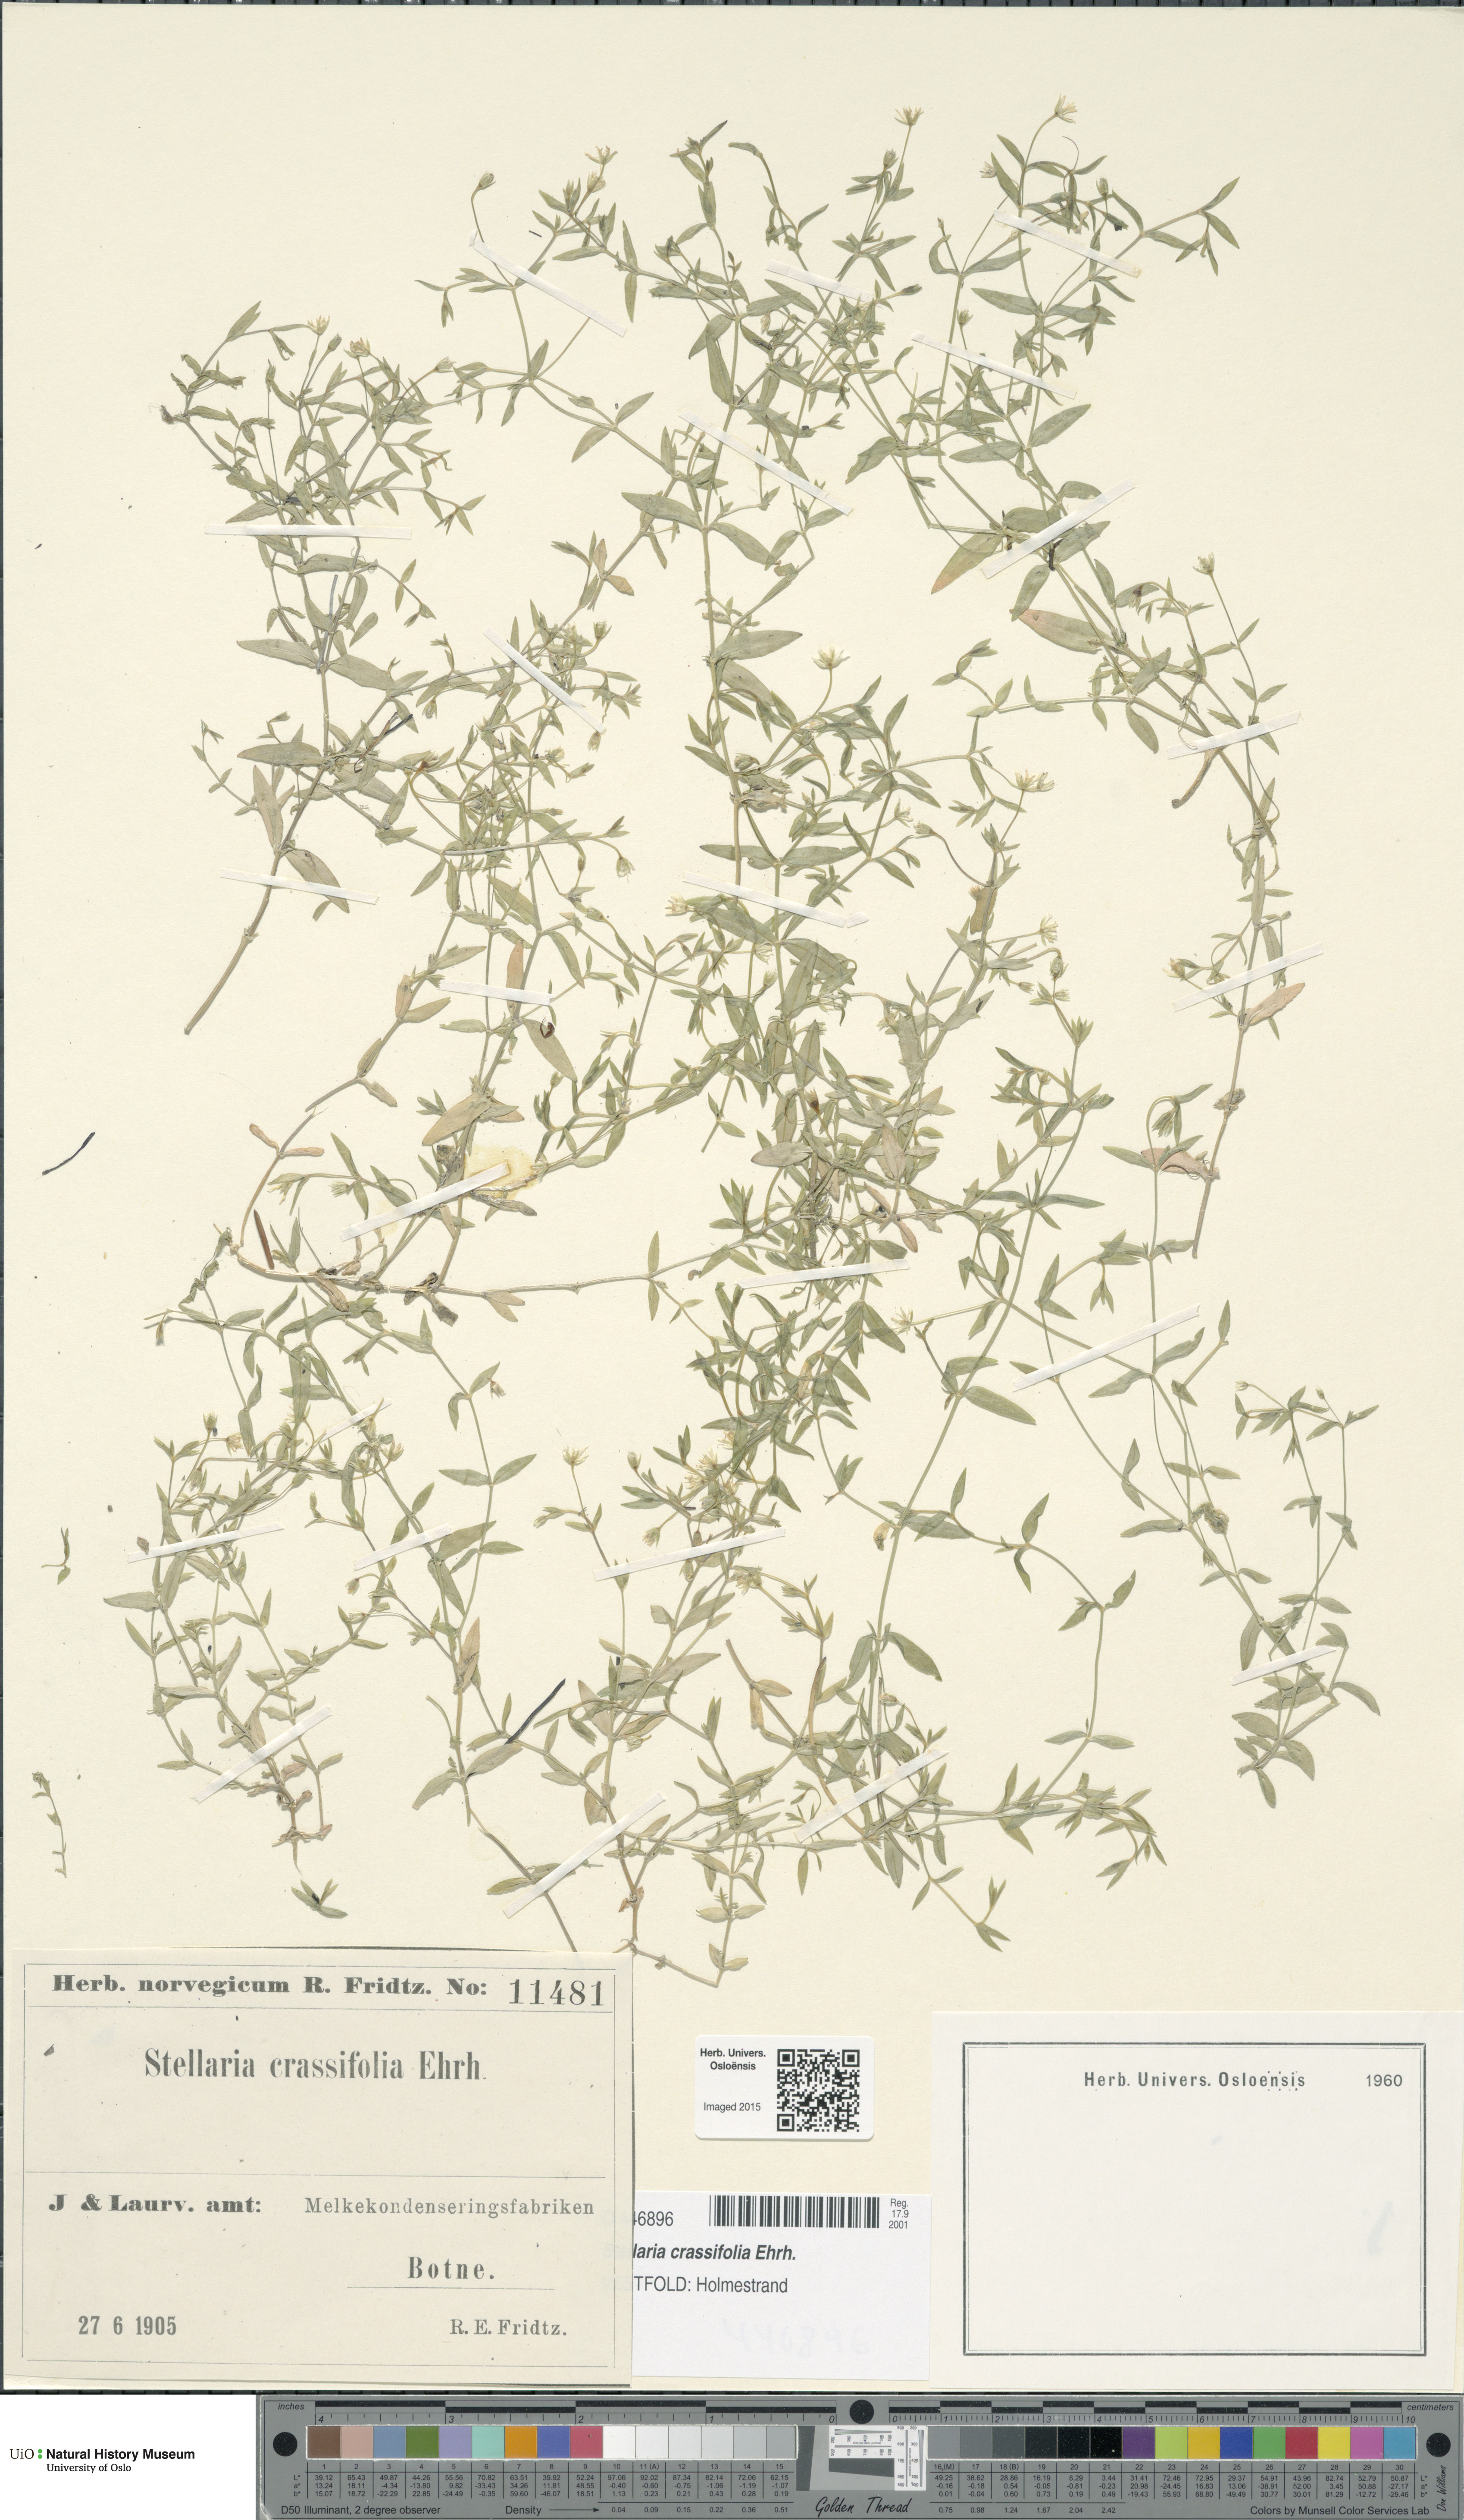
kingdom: Plantae
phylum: Tracheophyta
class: Magnoliopsida
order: Caryophyllales
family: Caryophyllaceae
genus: Stellaria
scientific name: Stellaria crassifolia
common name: Fleshy starwort
